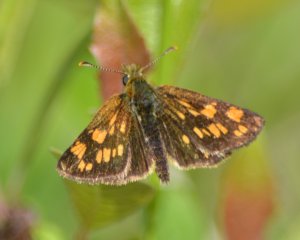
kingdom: Animalia
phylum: Arthropoda
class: Insecta
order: Lepidoptera
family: Hesperiidae
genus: Carterocephalus
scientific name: Carterocephalus palaemon
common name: Chequered Skipper
